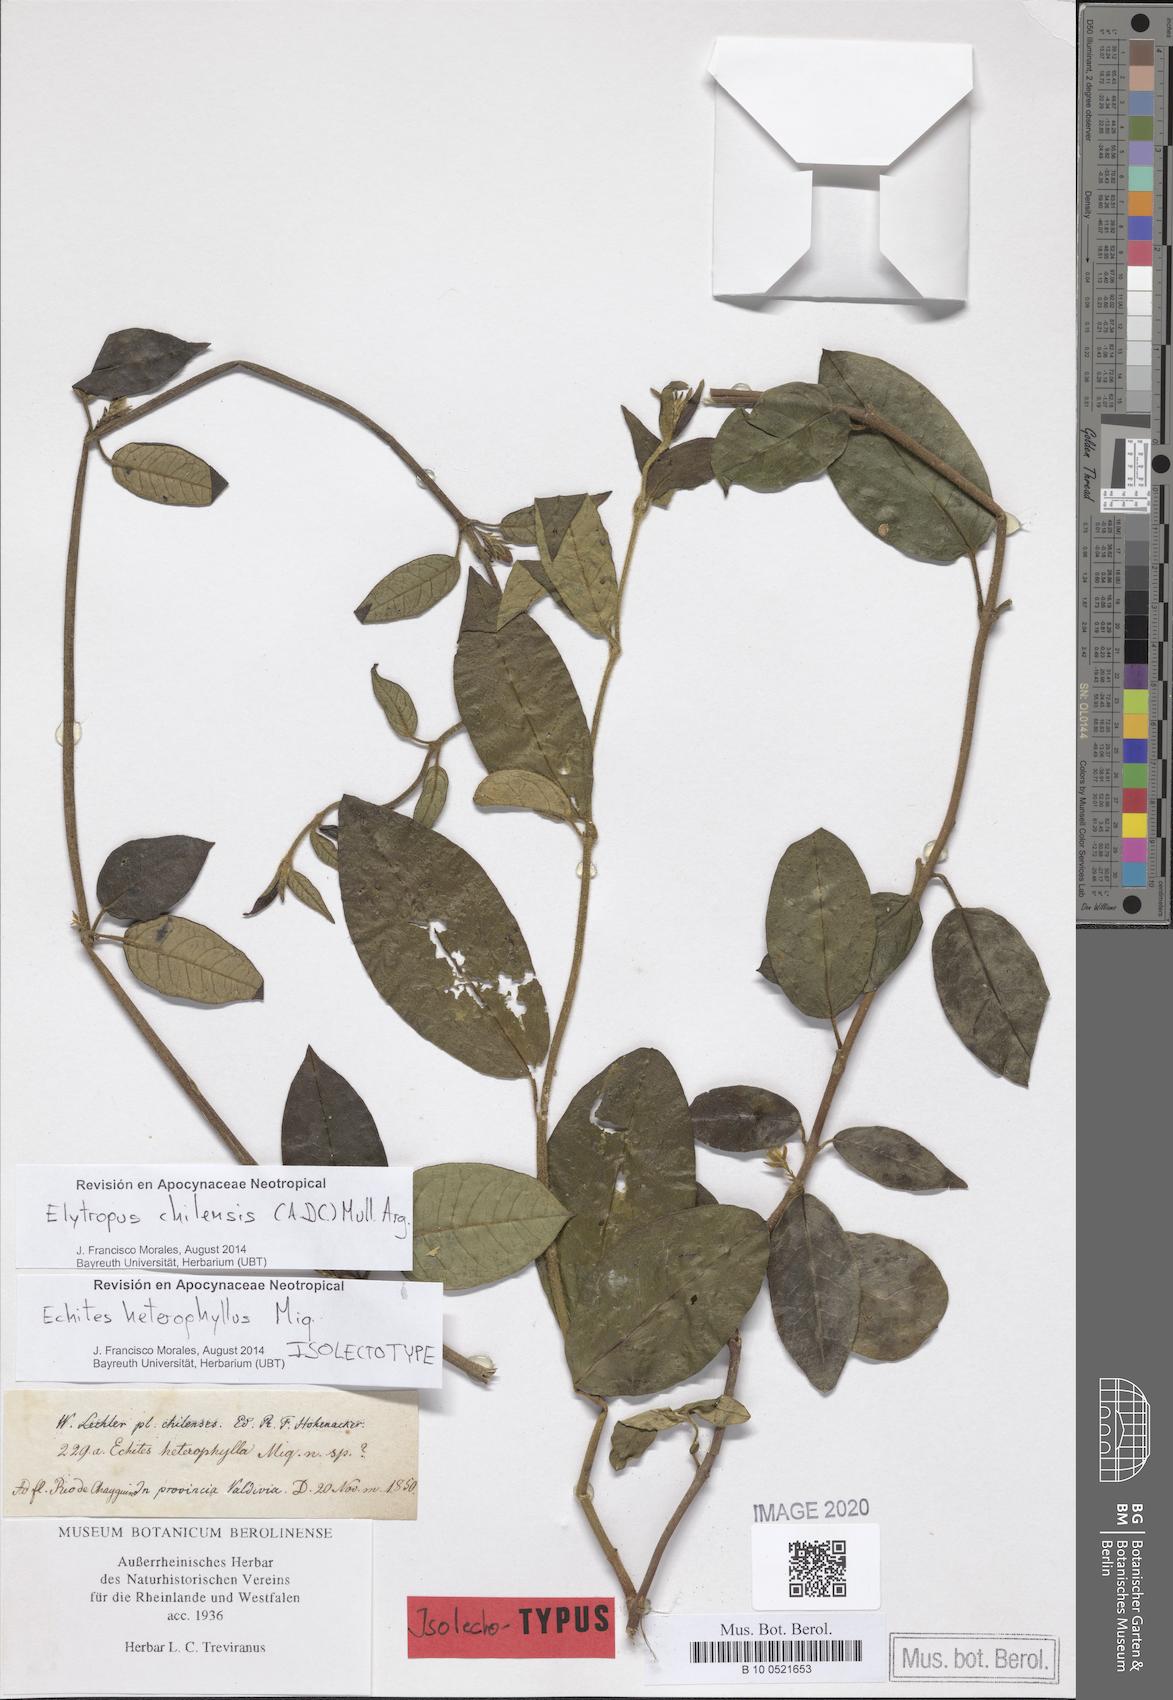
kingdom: Plantae
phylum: Tracheophyta
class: Magnoliopsida
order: Gentianales
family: Apocynaceae
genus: Mandevilla
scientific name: Mandevilla pubescens
